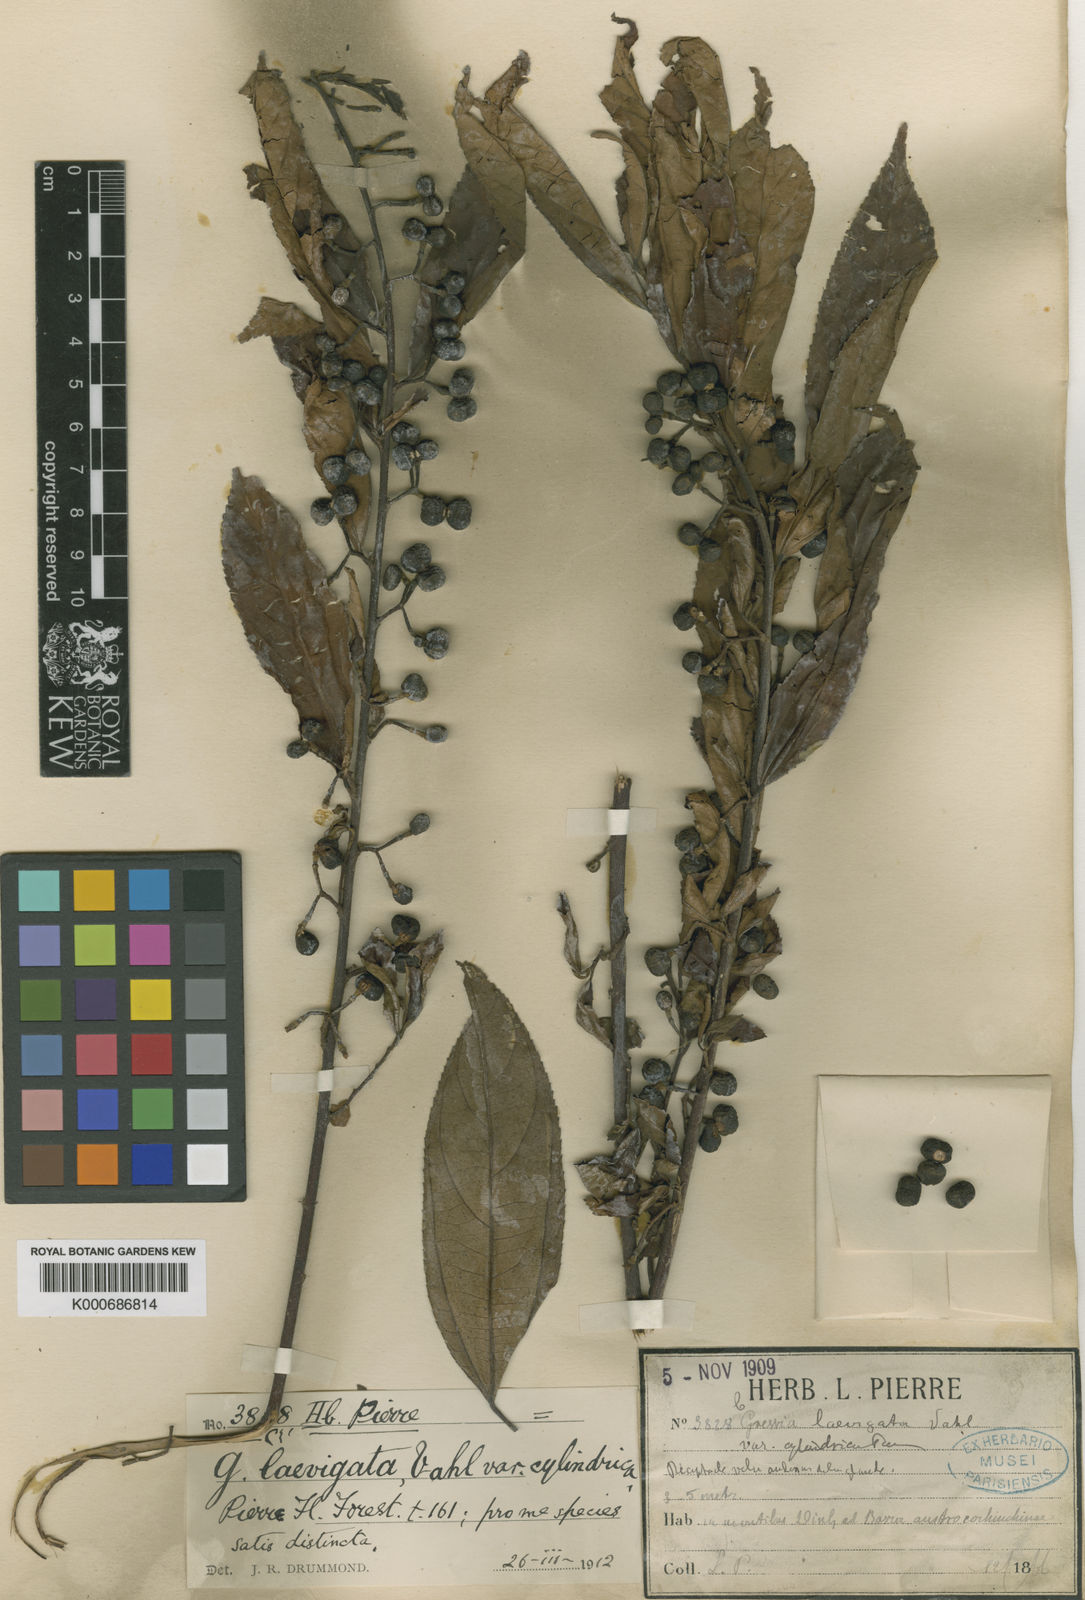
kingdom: Plantae
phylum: Tracheophyta
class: Magnoliopsida
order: Malvales
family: Malvaceae
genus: Grewia
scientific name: Grewia laevigata
